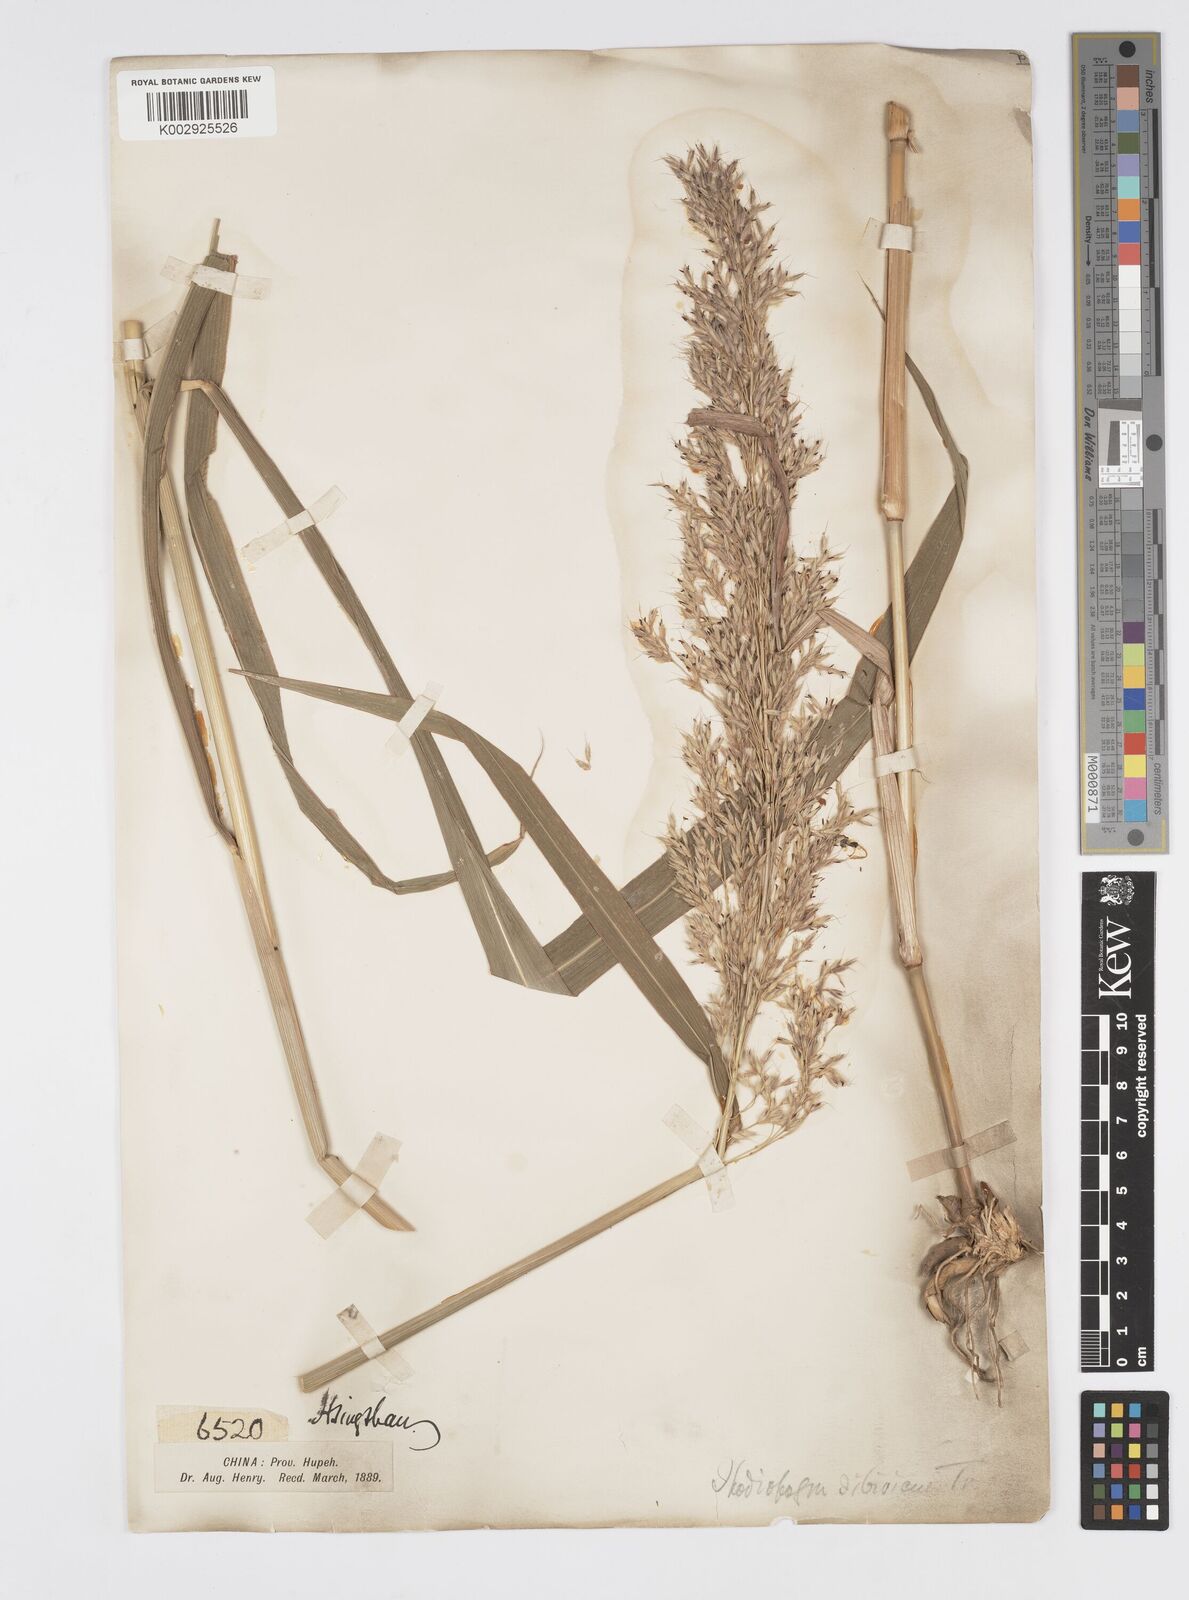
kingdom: Plantae
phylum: Tracheophyta
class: Liliopsida
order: Poales
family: Poaceae
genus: Spodiopogon
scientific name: Spodiopogon sibiricus
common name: Siberian graybeard
